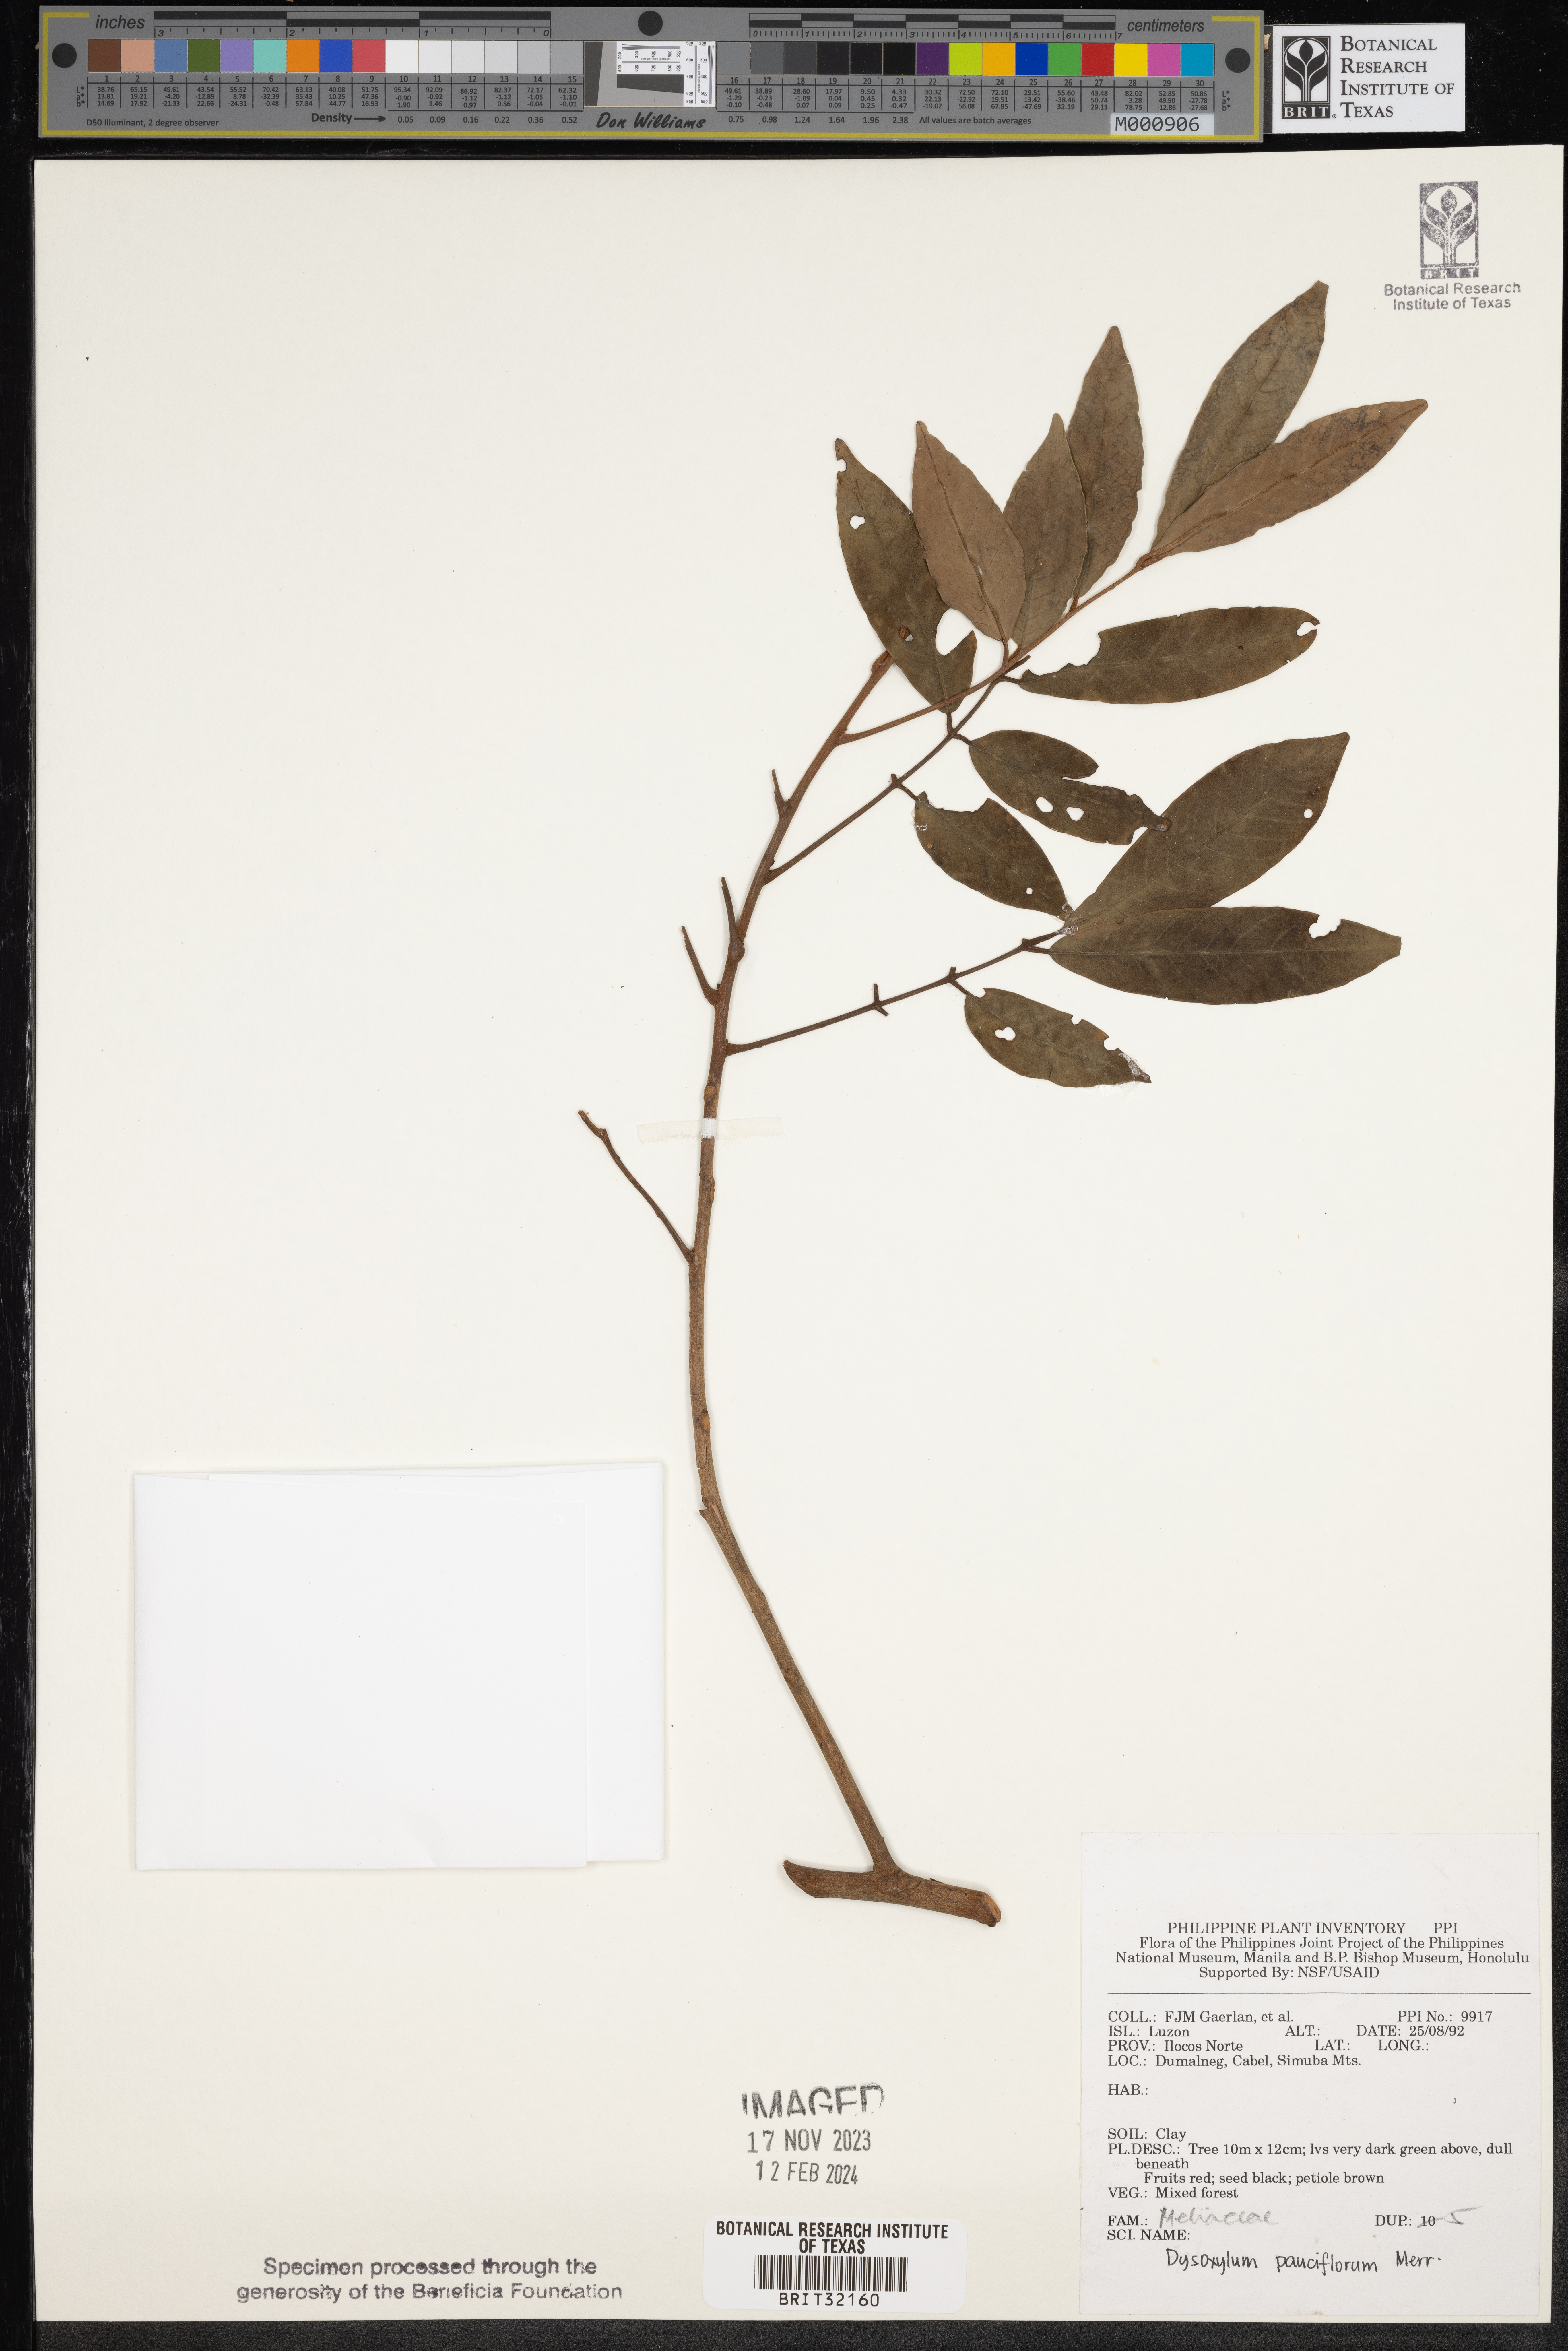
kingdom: Plantae
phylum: Tracheophyta
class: Magnoliopsida
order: Sapindales
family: Meliaceae
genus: Didymocheton
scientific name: Didymocheton pauciflorus
